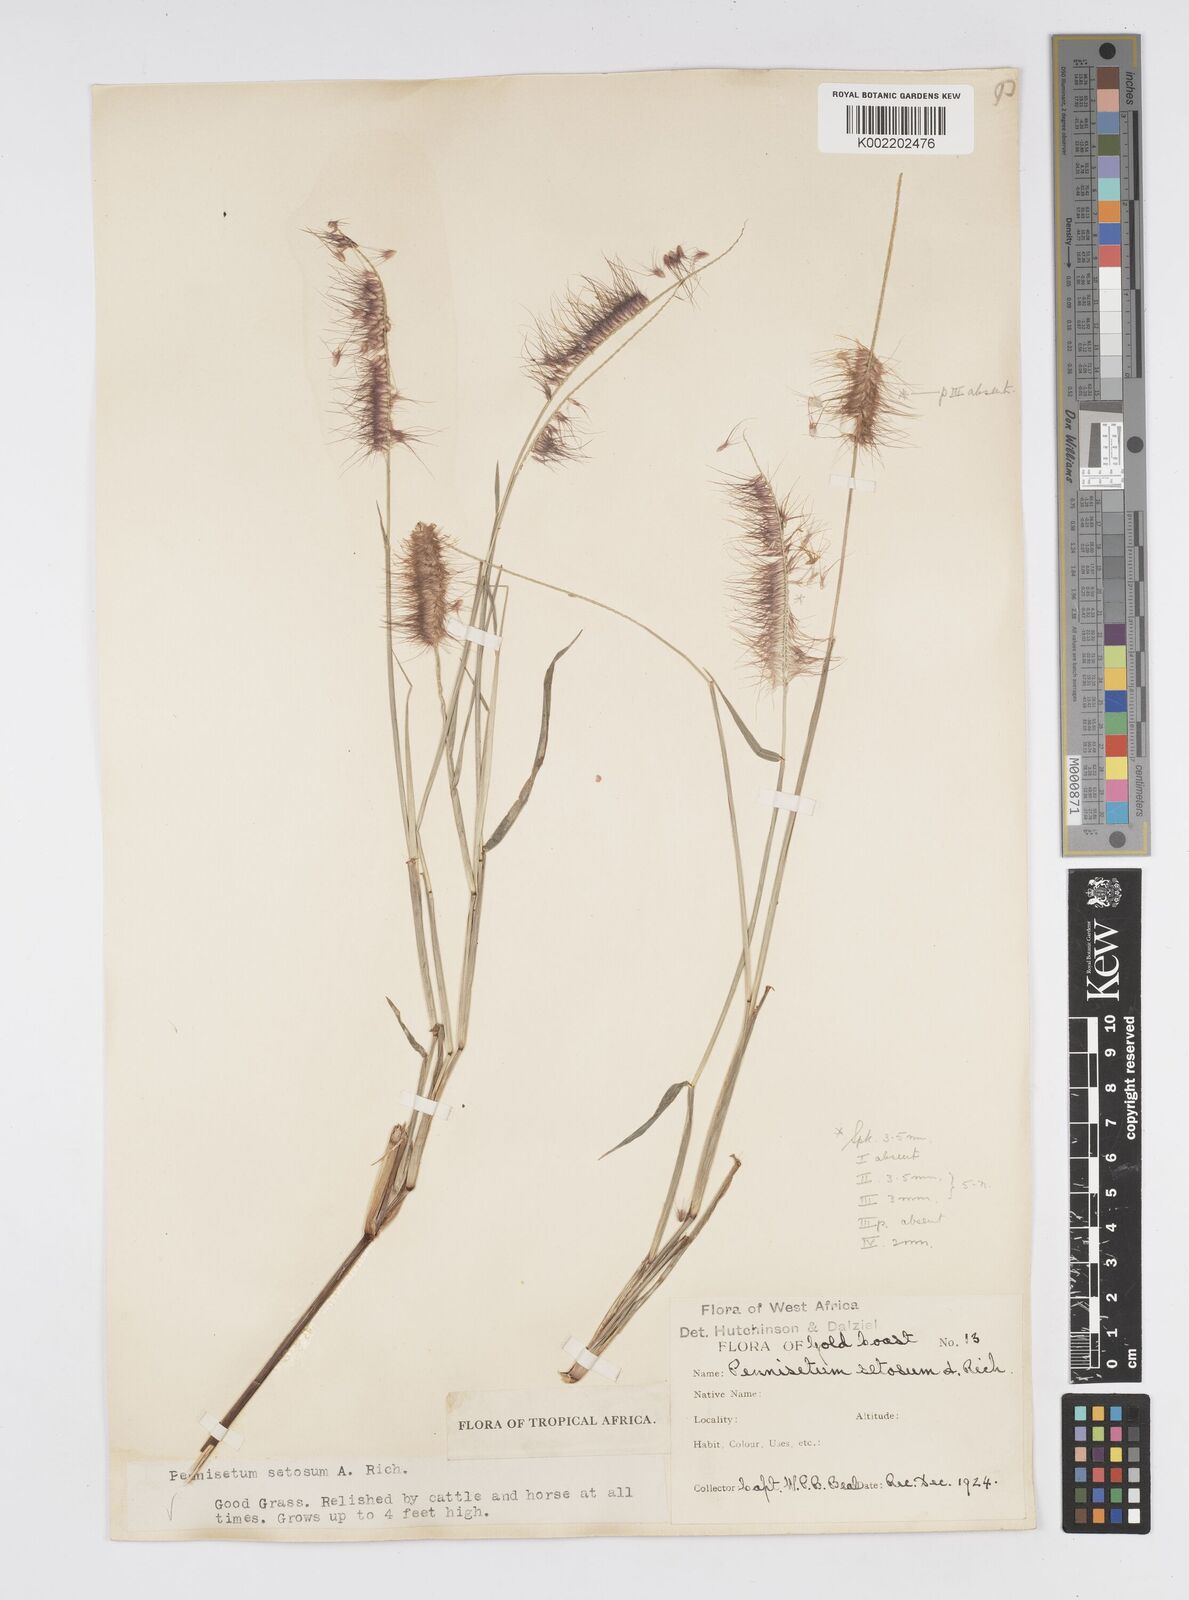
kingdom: Plantae
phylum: Tracheophyta
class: Liliopsida
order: Poales
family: Poaceae
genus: Setaria
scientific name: Setaria parviflora
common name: Knotroot bristle-grass
